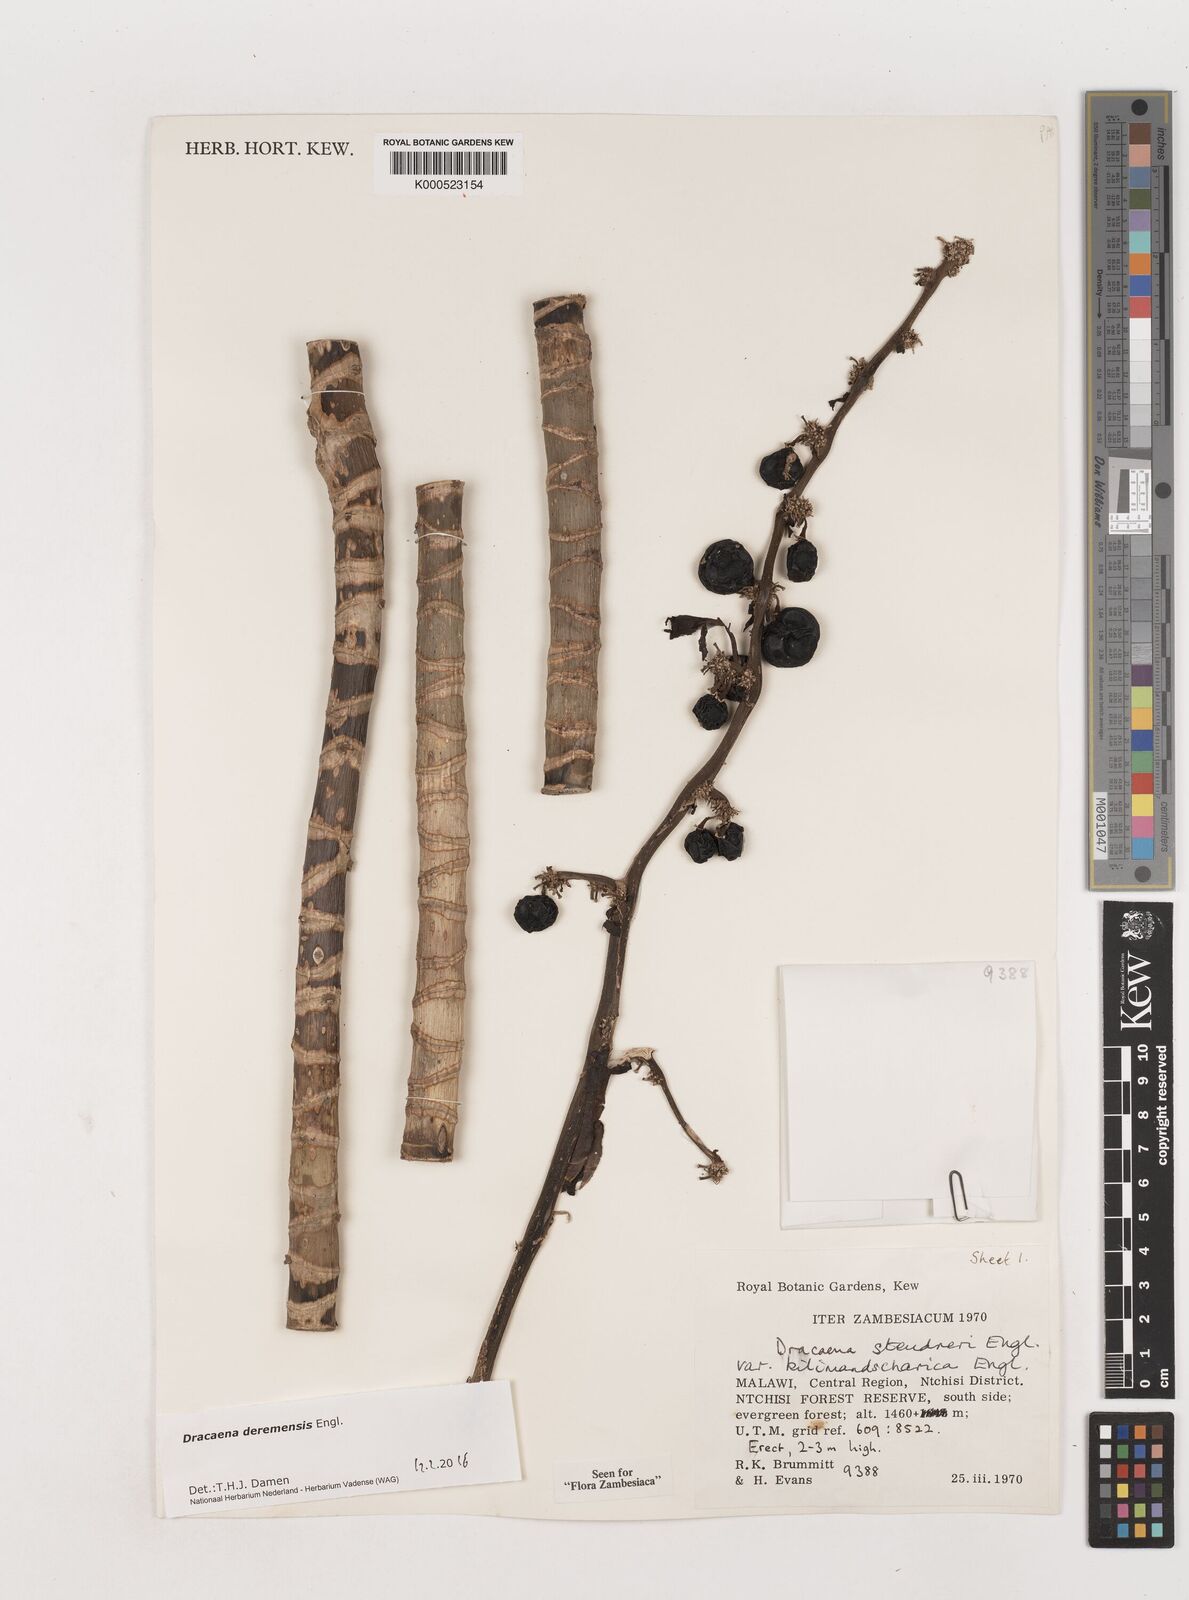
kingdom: Plantae
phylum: Tracheophyta
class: Liliopsida
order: Asparagales
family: Asparagaceae
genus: Dracaena
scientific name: Dracaena fragrans
